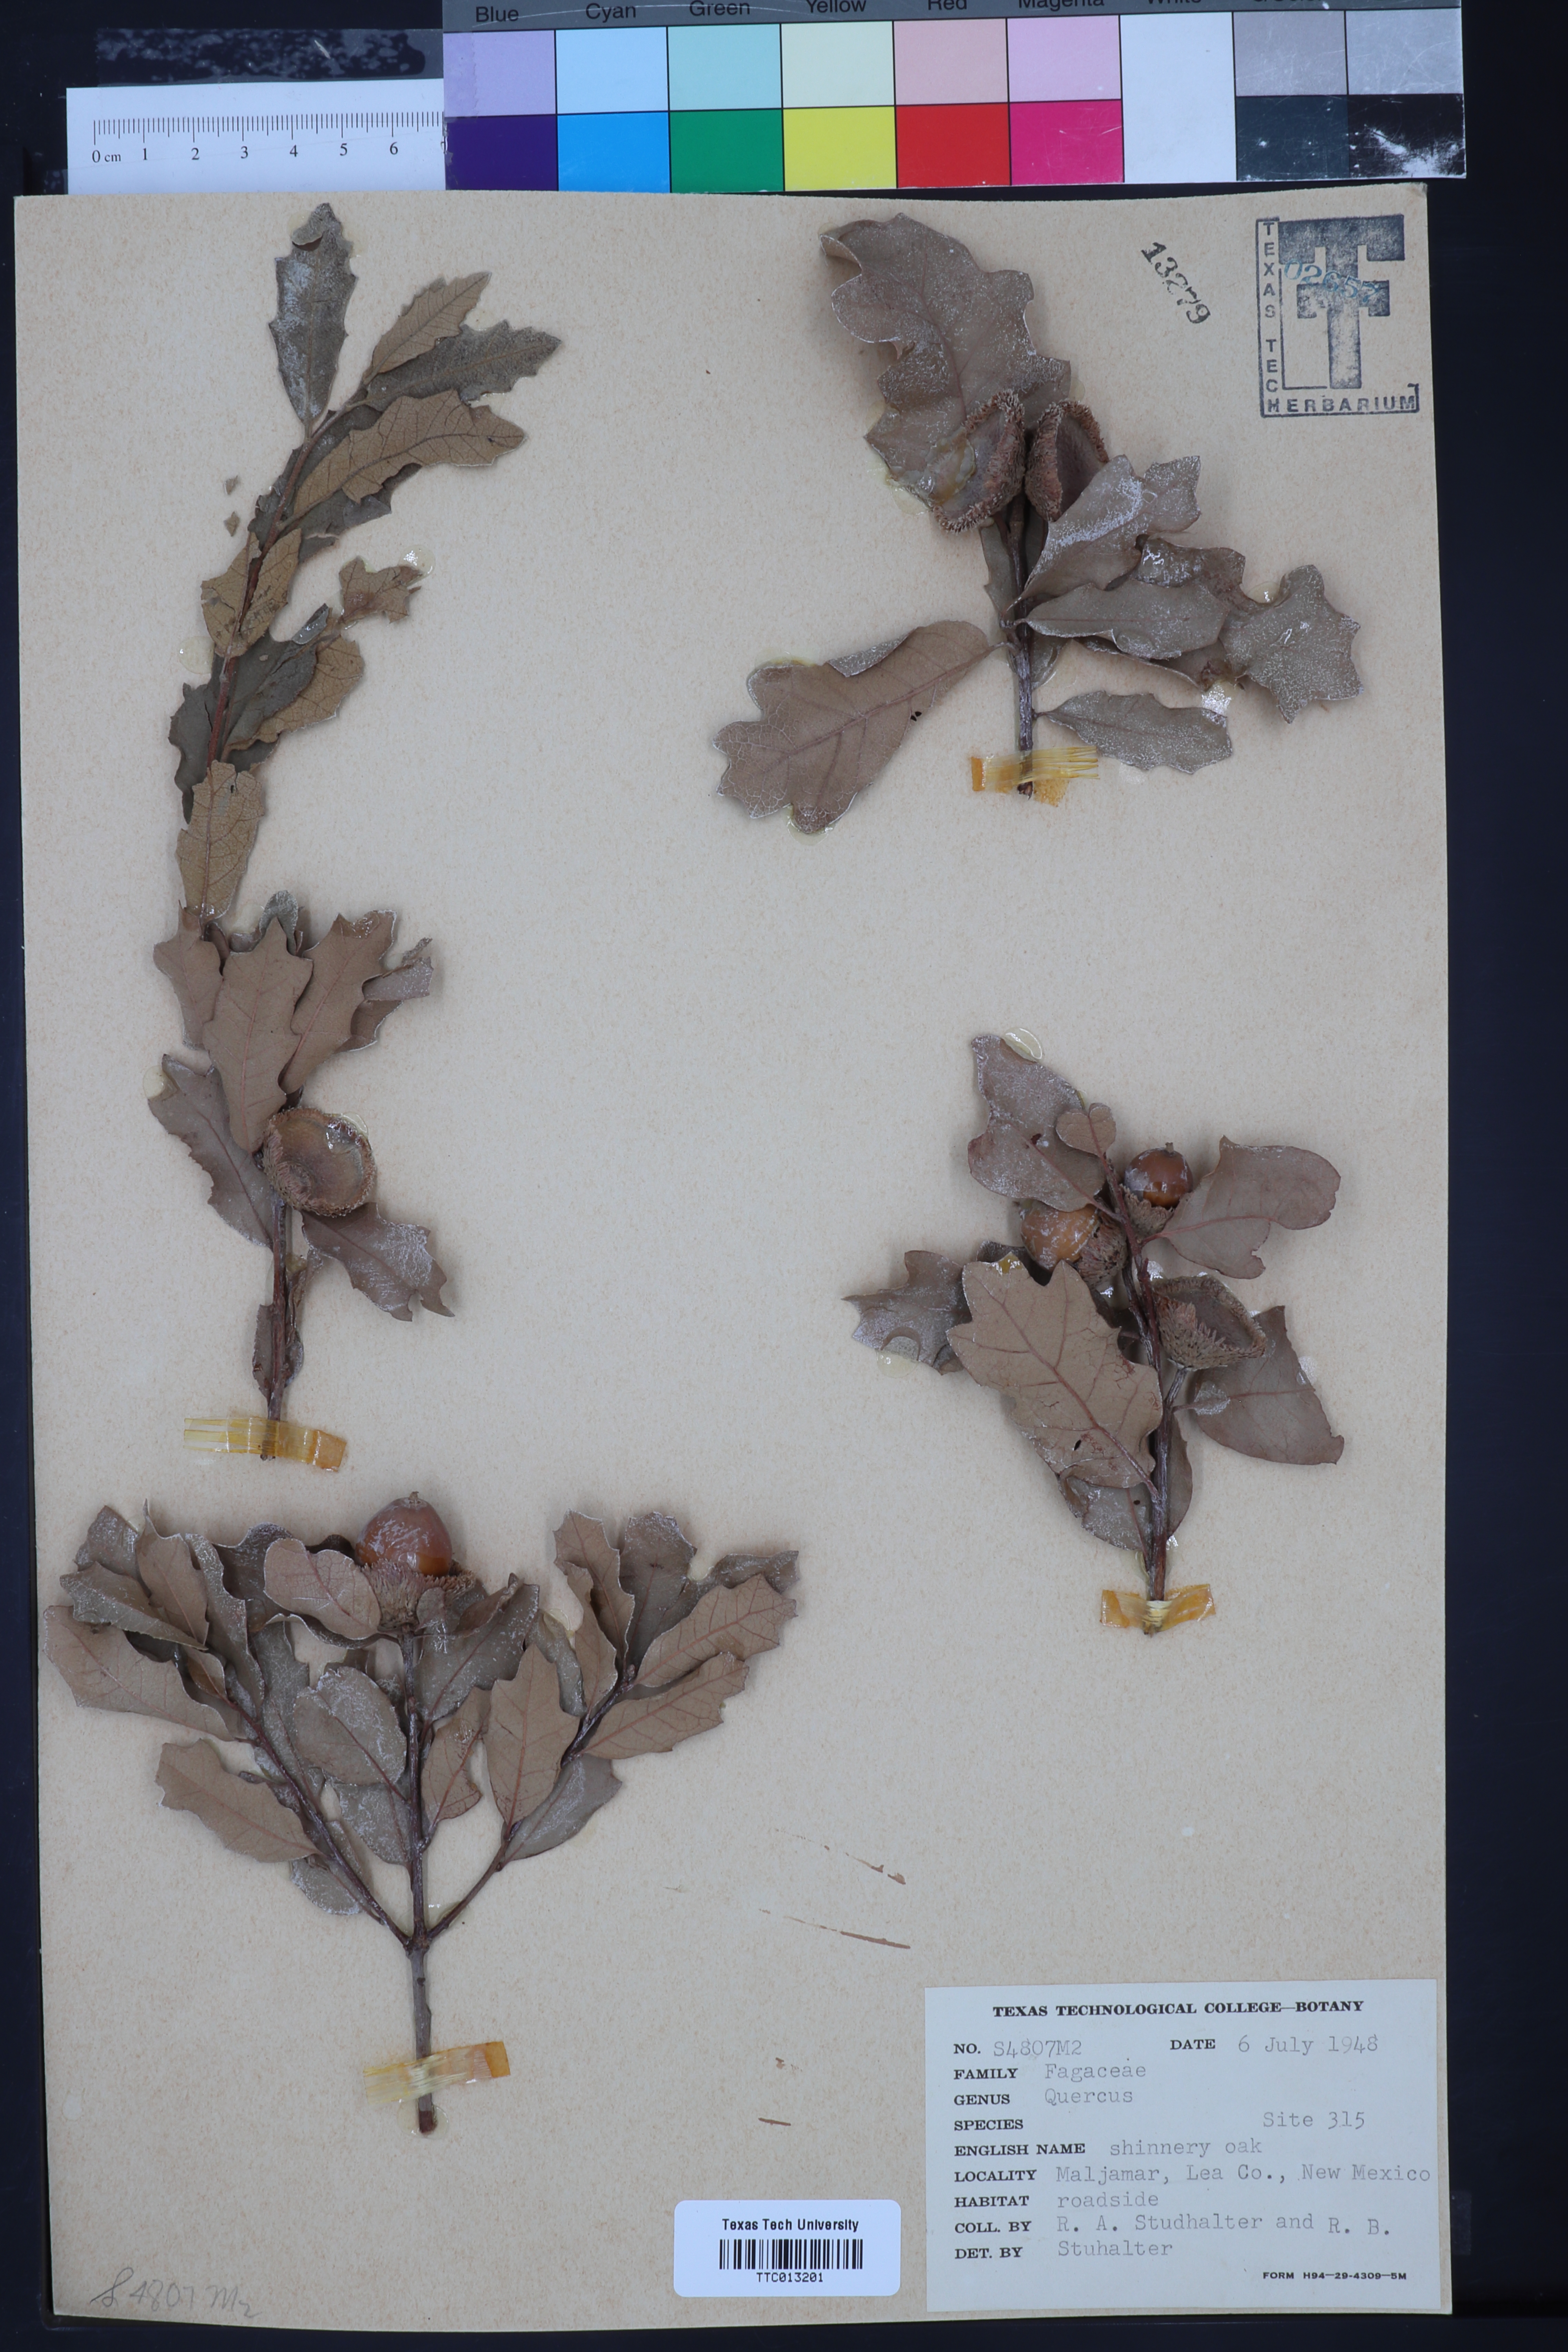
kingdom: Plantae
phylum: Tracheophyta
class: Magnoliopsida
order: Fagales
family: Fagaceae
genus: Quercus
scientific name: Quercus
